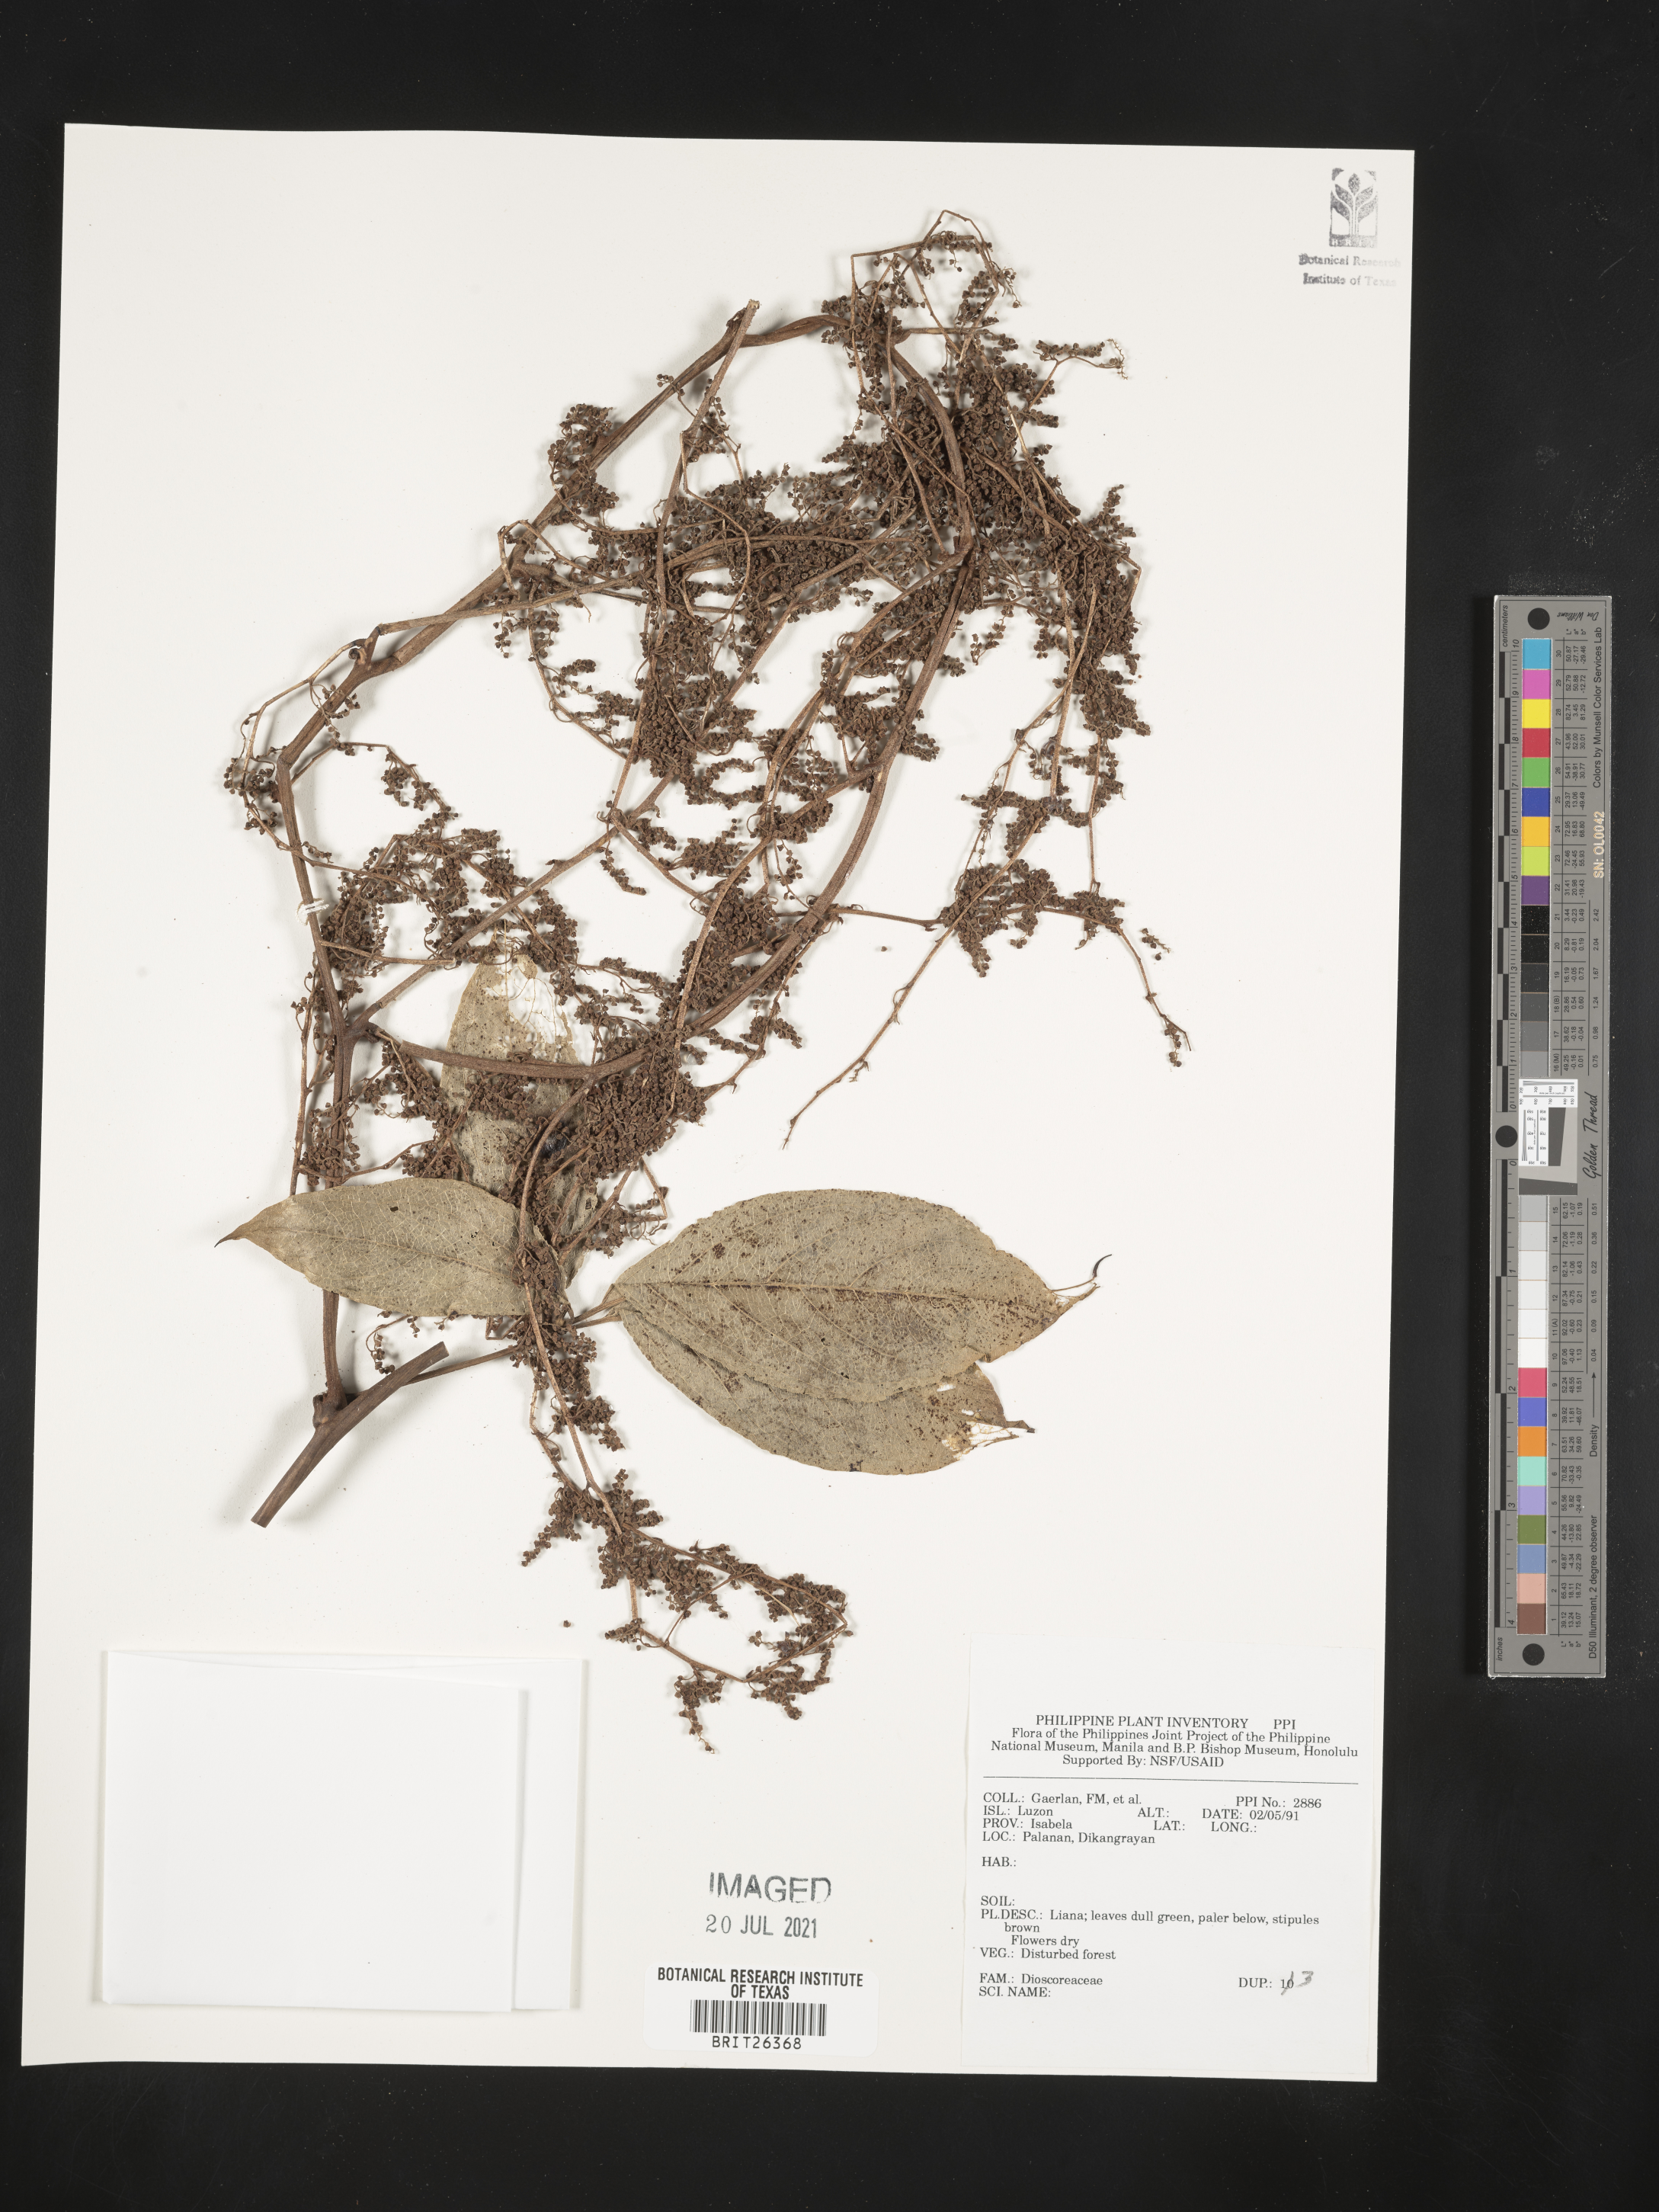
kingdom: Plantae
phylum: Tracheophyta
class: Liliopsida
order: Dioscoreales
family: Dioscoreaceae
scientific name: Dioscoreaceae
